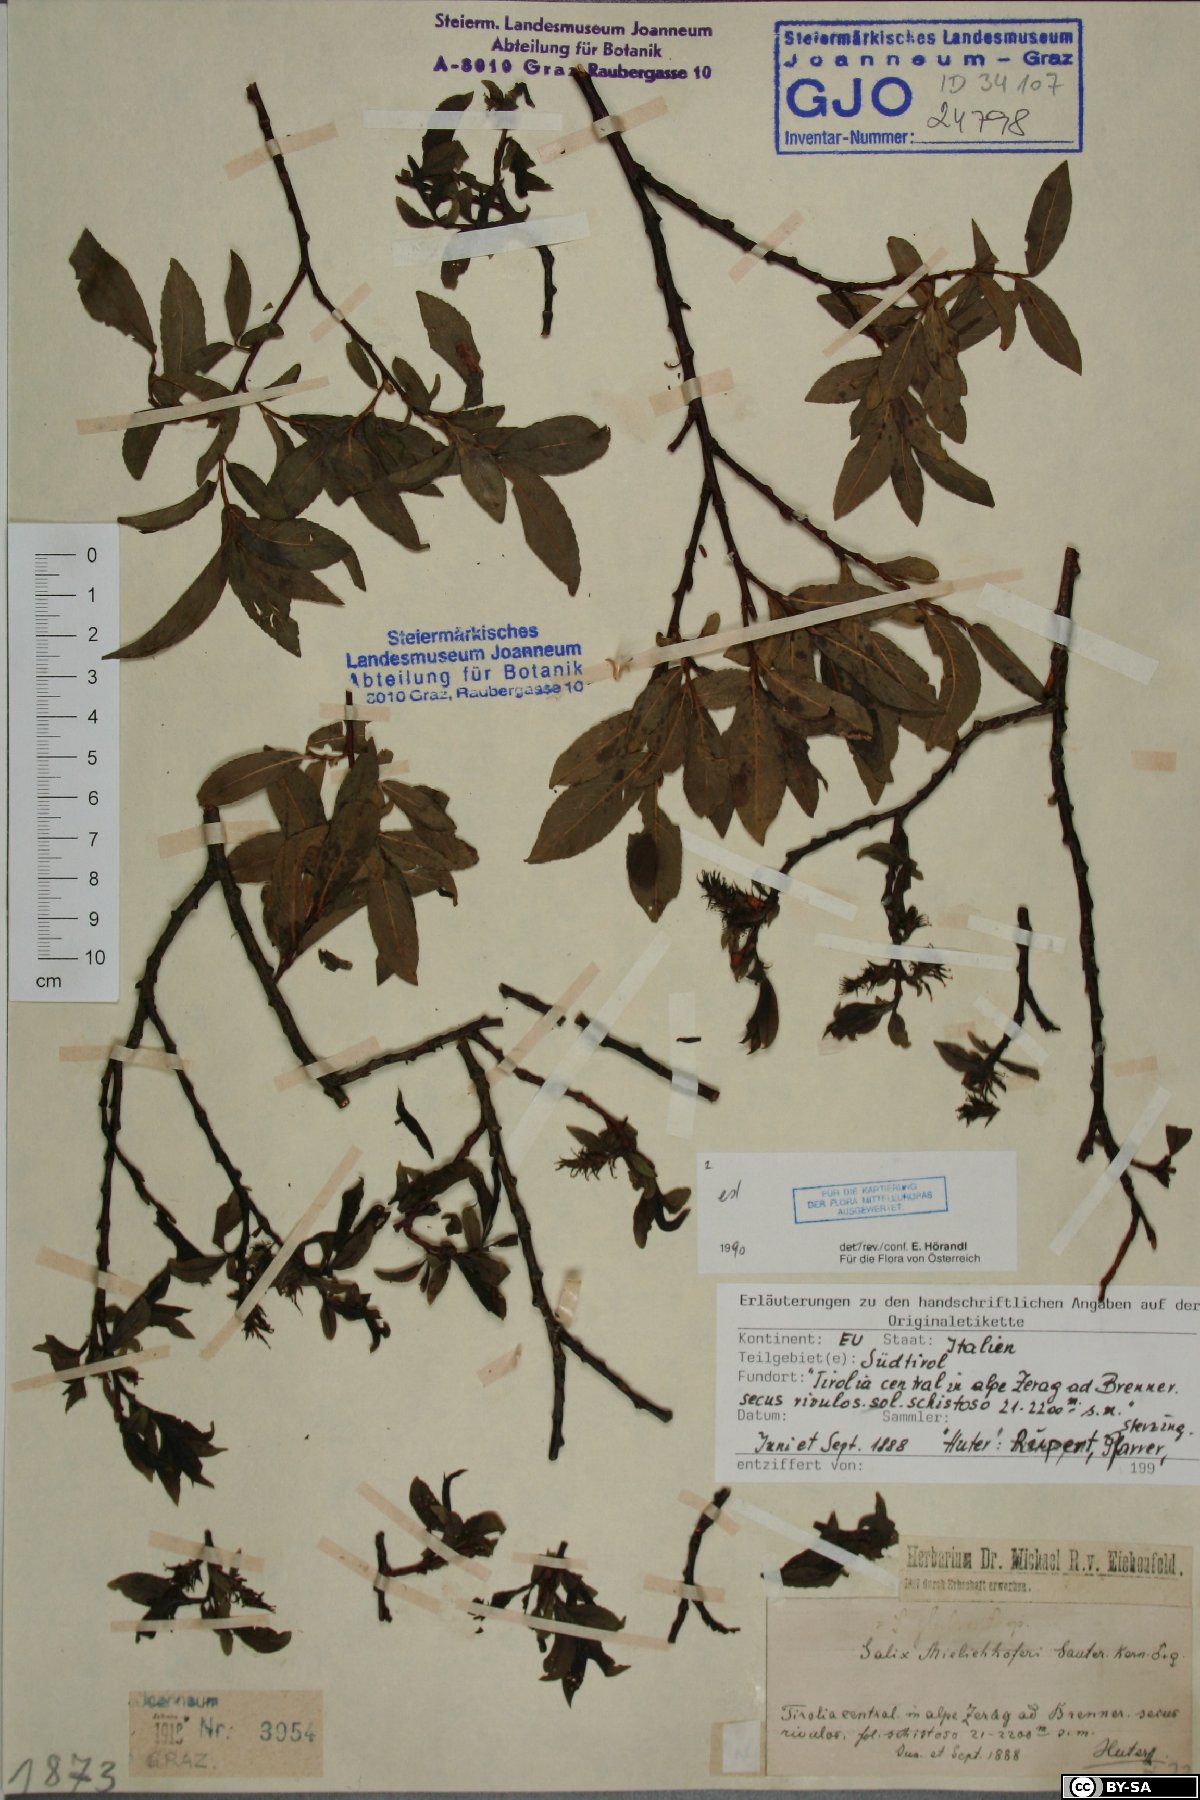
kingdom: Plantae
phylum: Tracheophyta
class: Magnoliopsida
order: Malpighiales
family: Salicaceae
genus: Salix
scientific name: Salix mielichhoferi
